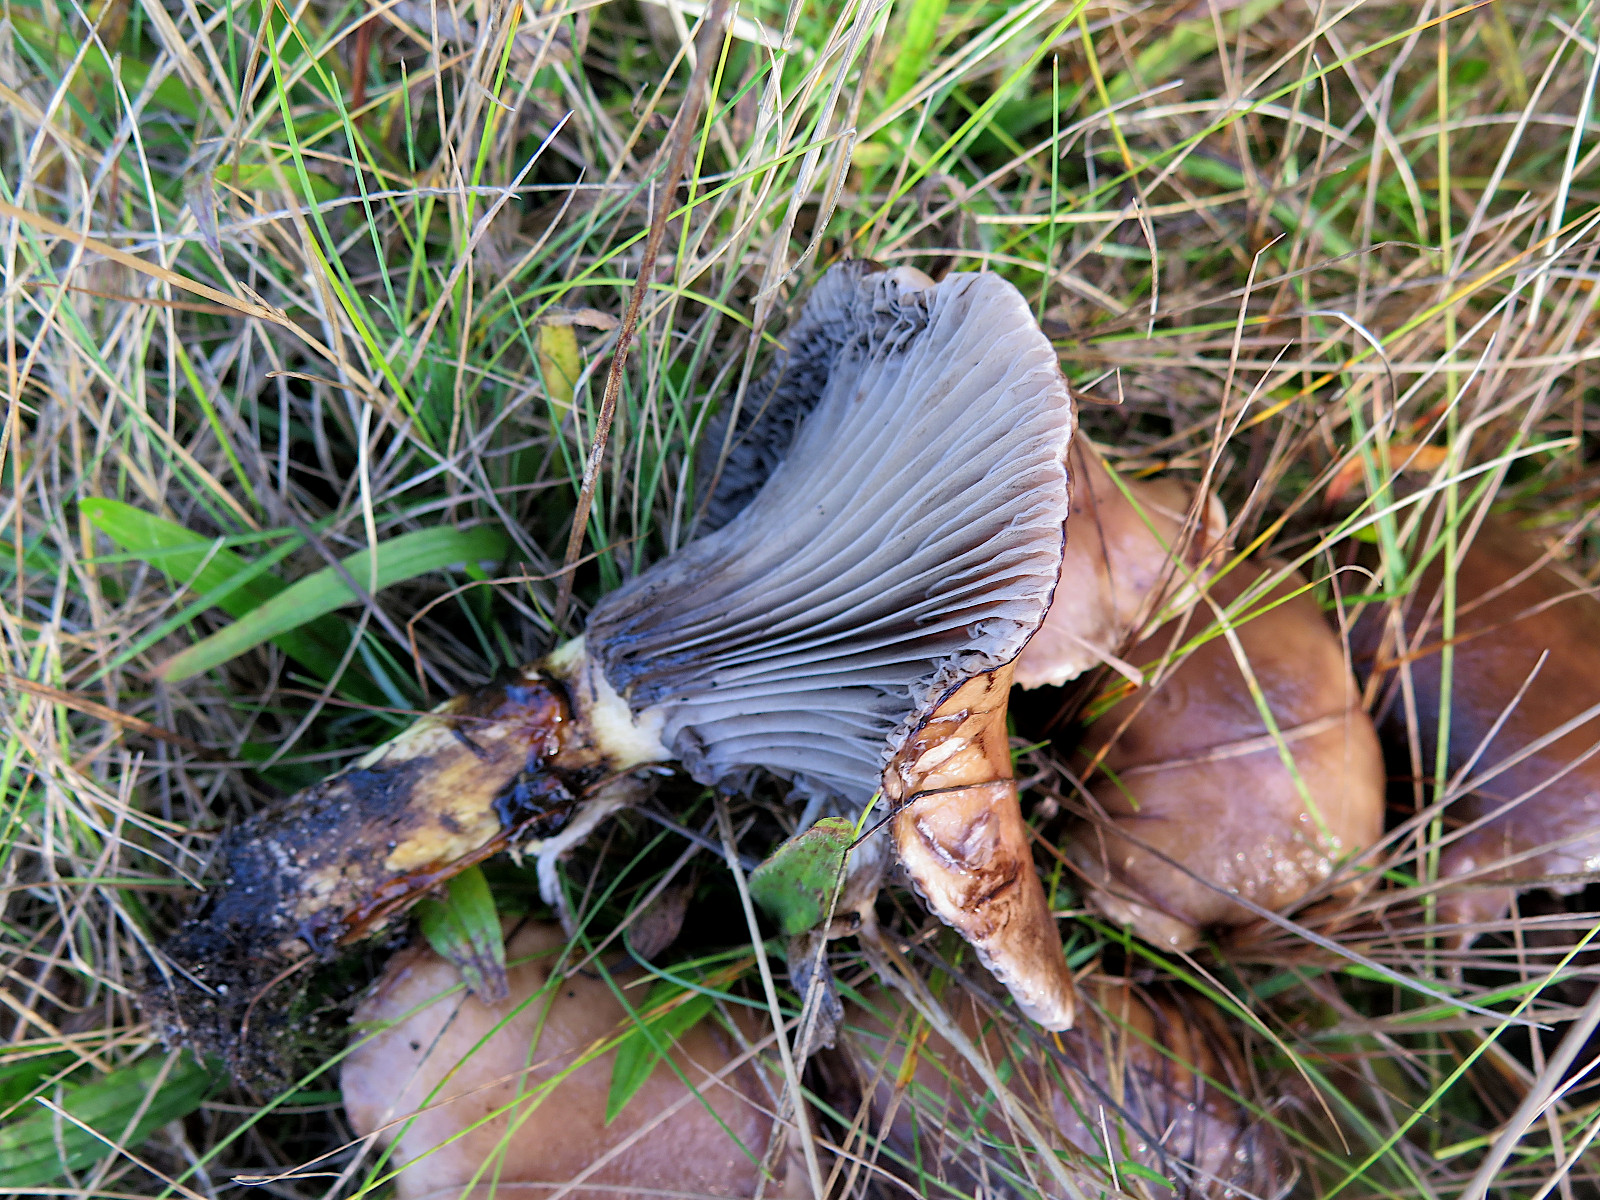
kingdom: Fungi
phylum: Basidiomycota
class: Agaricomycetes
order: Boletales
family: Gomphidiaceae
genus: Gomphidius
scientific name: Gomphidius glutinosus
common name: grå slimslør
